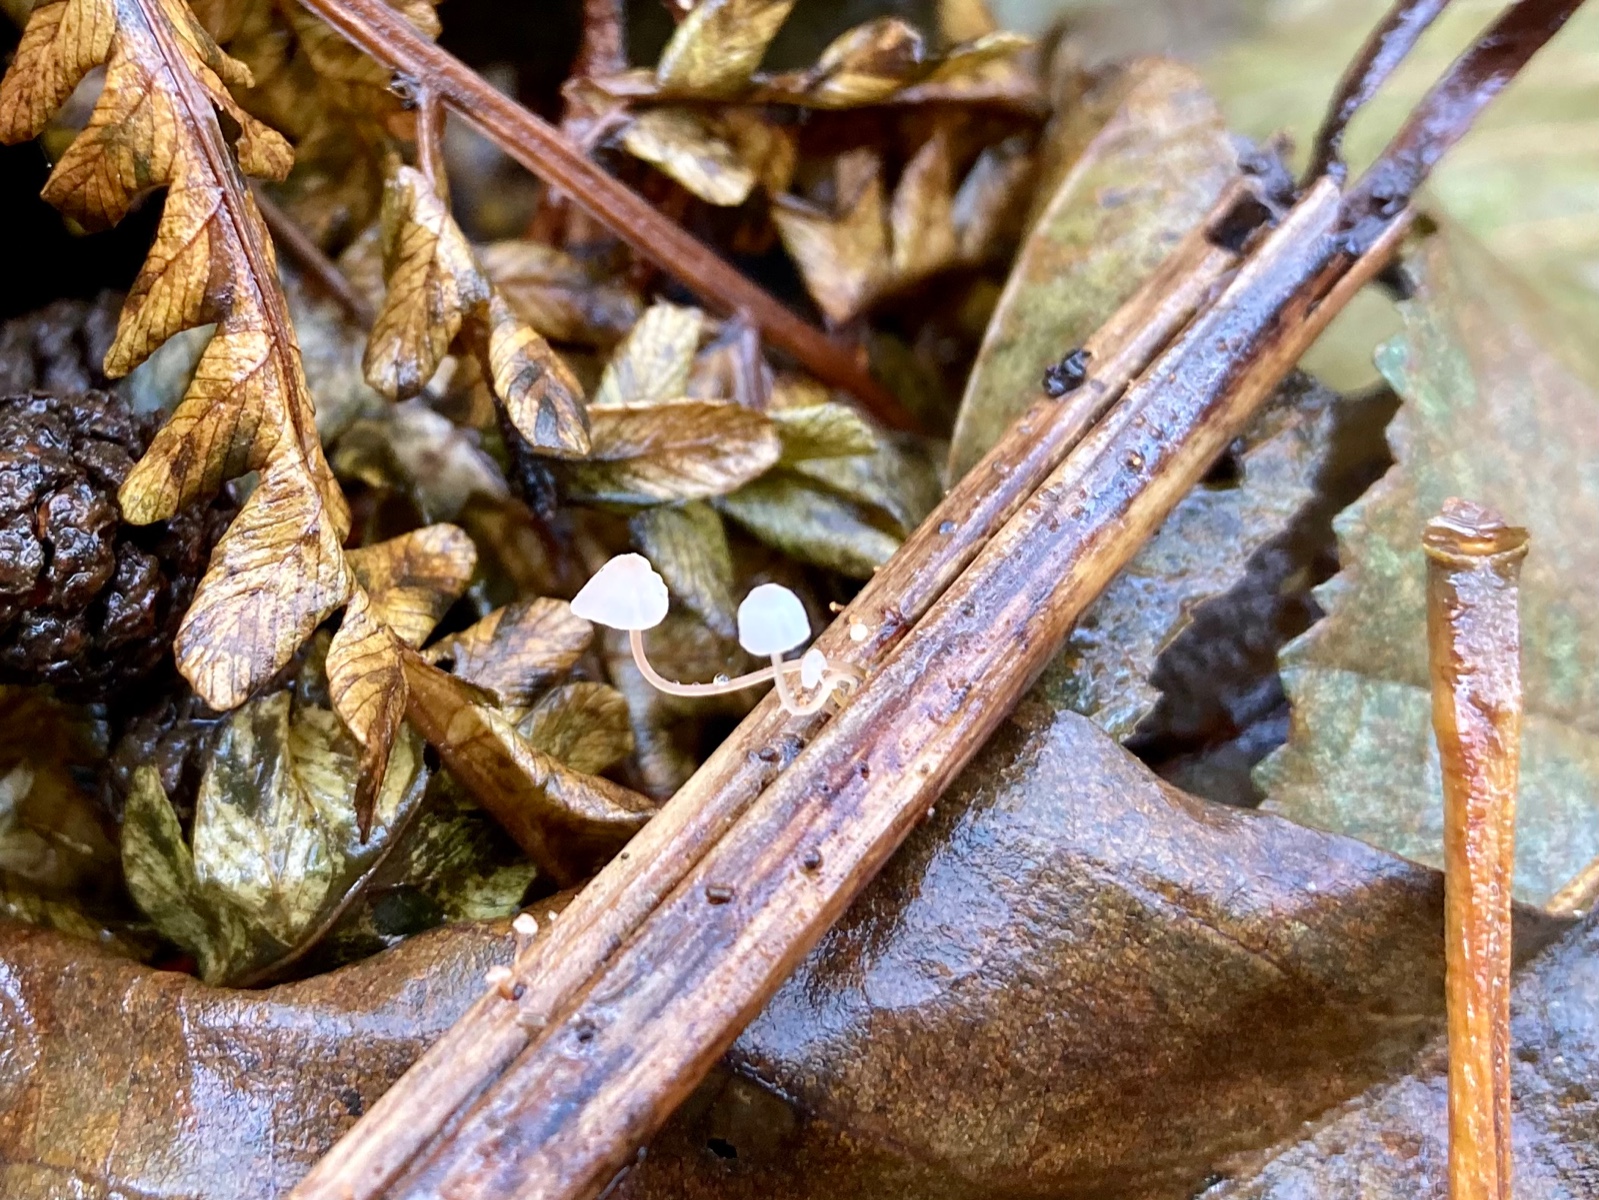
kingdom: Fungi
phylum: Basidiomycota
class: Agaricomycetes
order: Agaricales
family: Mycenaceae
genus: Mycena
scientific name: Mycena pterigena
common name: bregne-huesvamp
